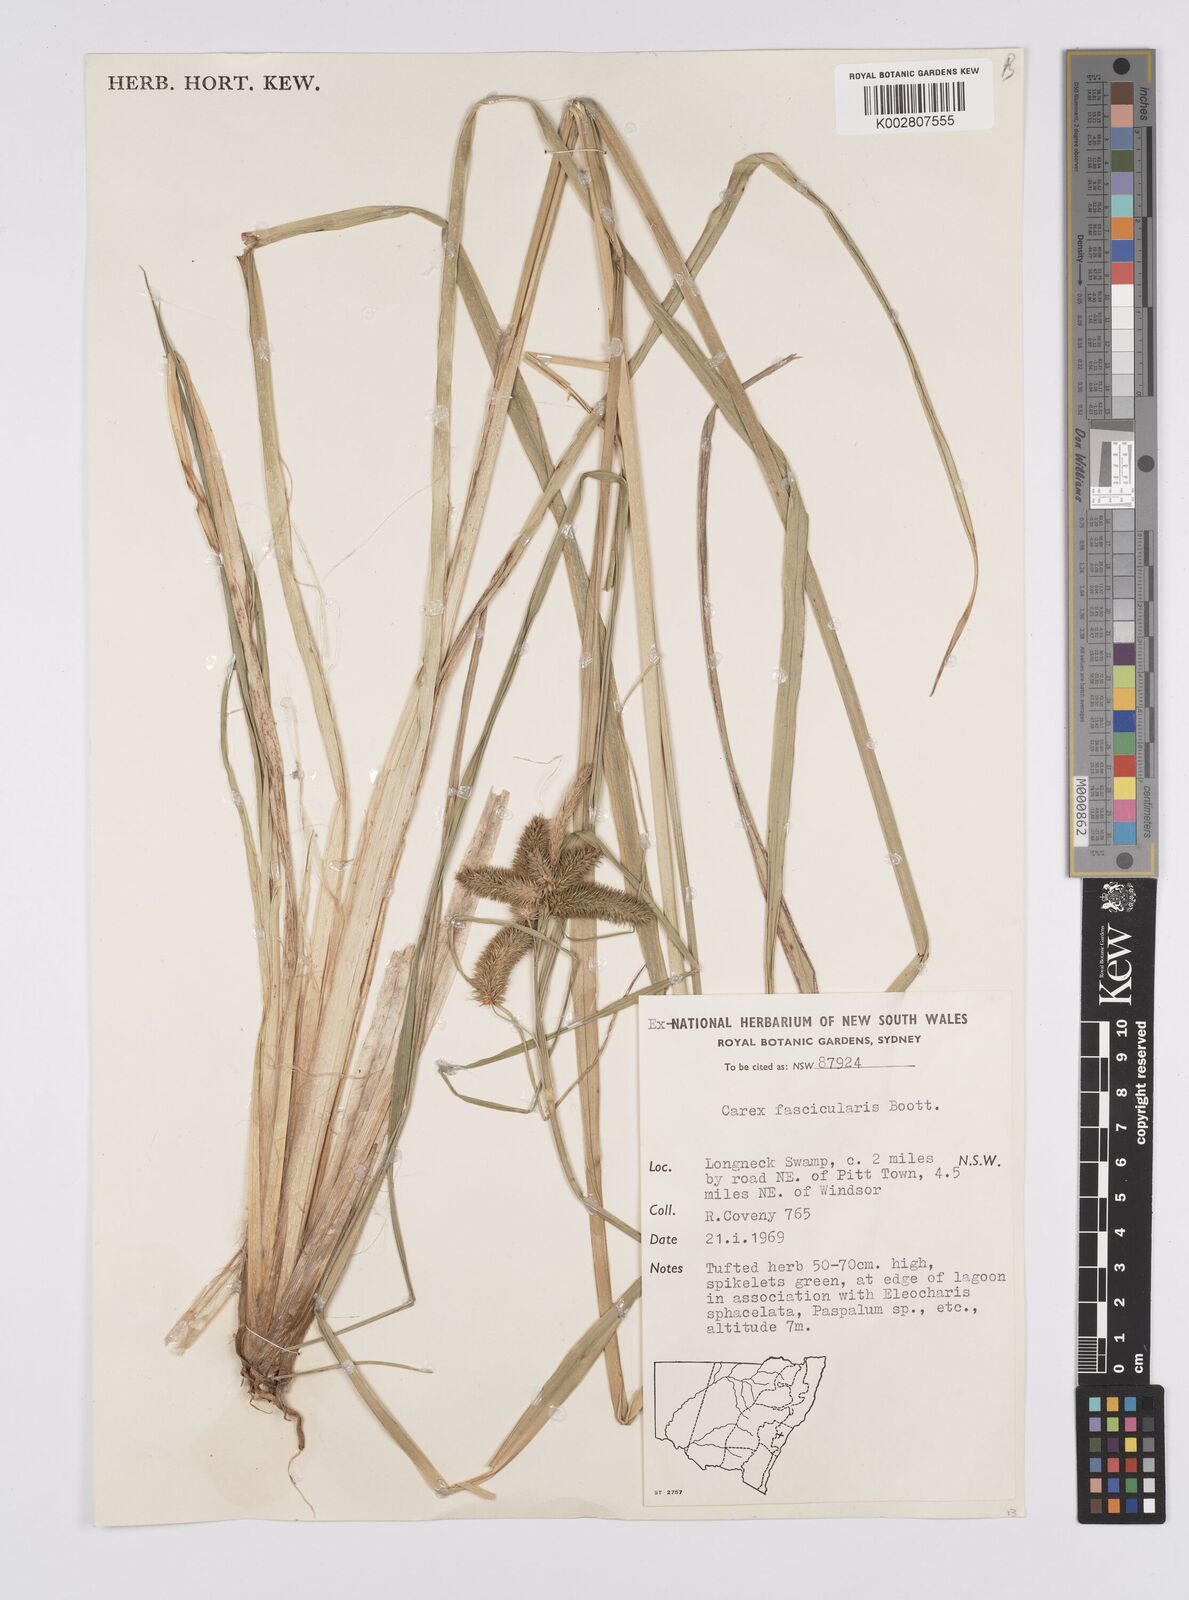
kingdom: Plantae
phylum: Tracheophyta
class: Liliopsida
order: Poales
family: Cyperaceae
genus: Carex
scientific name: Carex fascicularis
